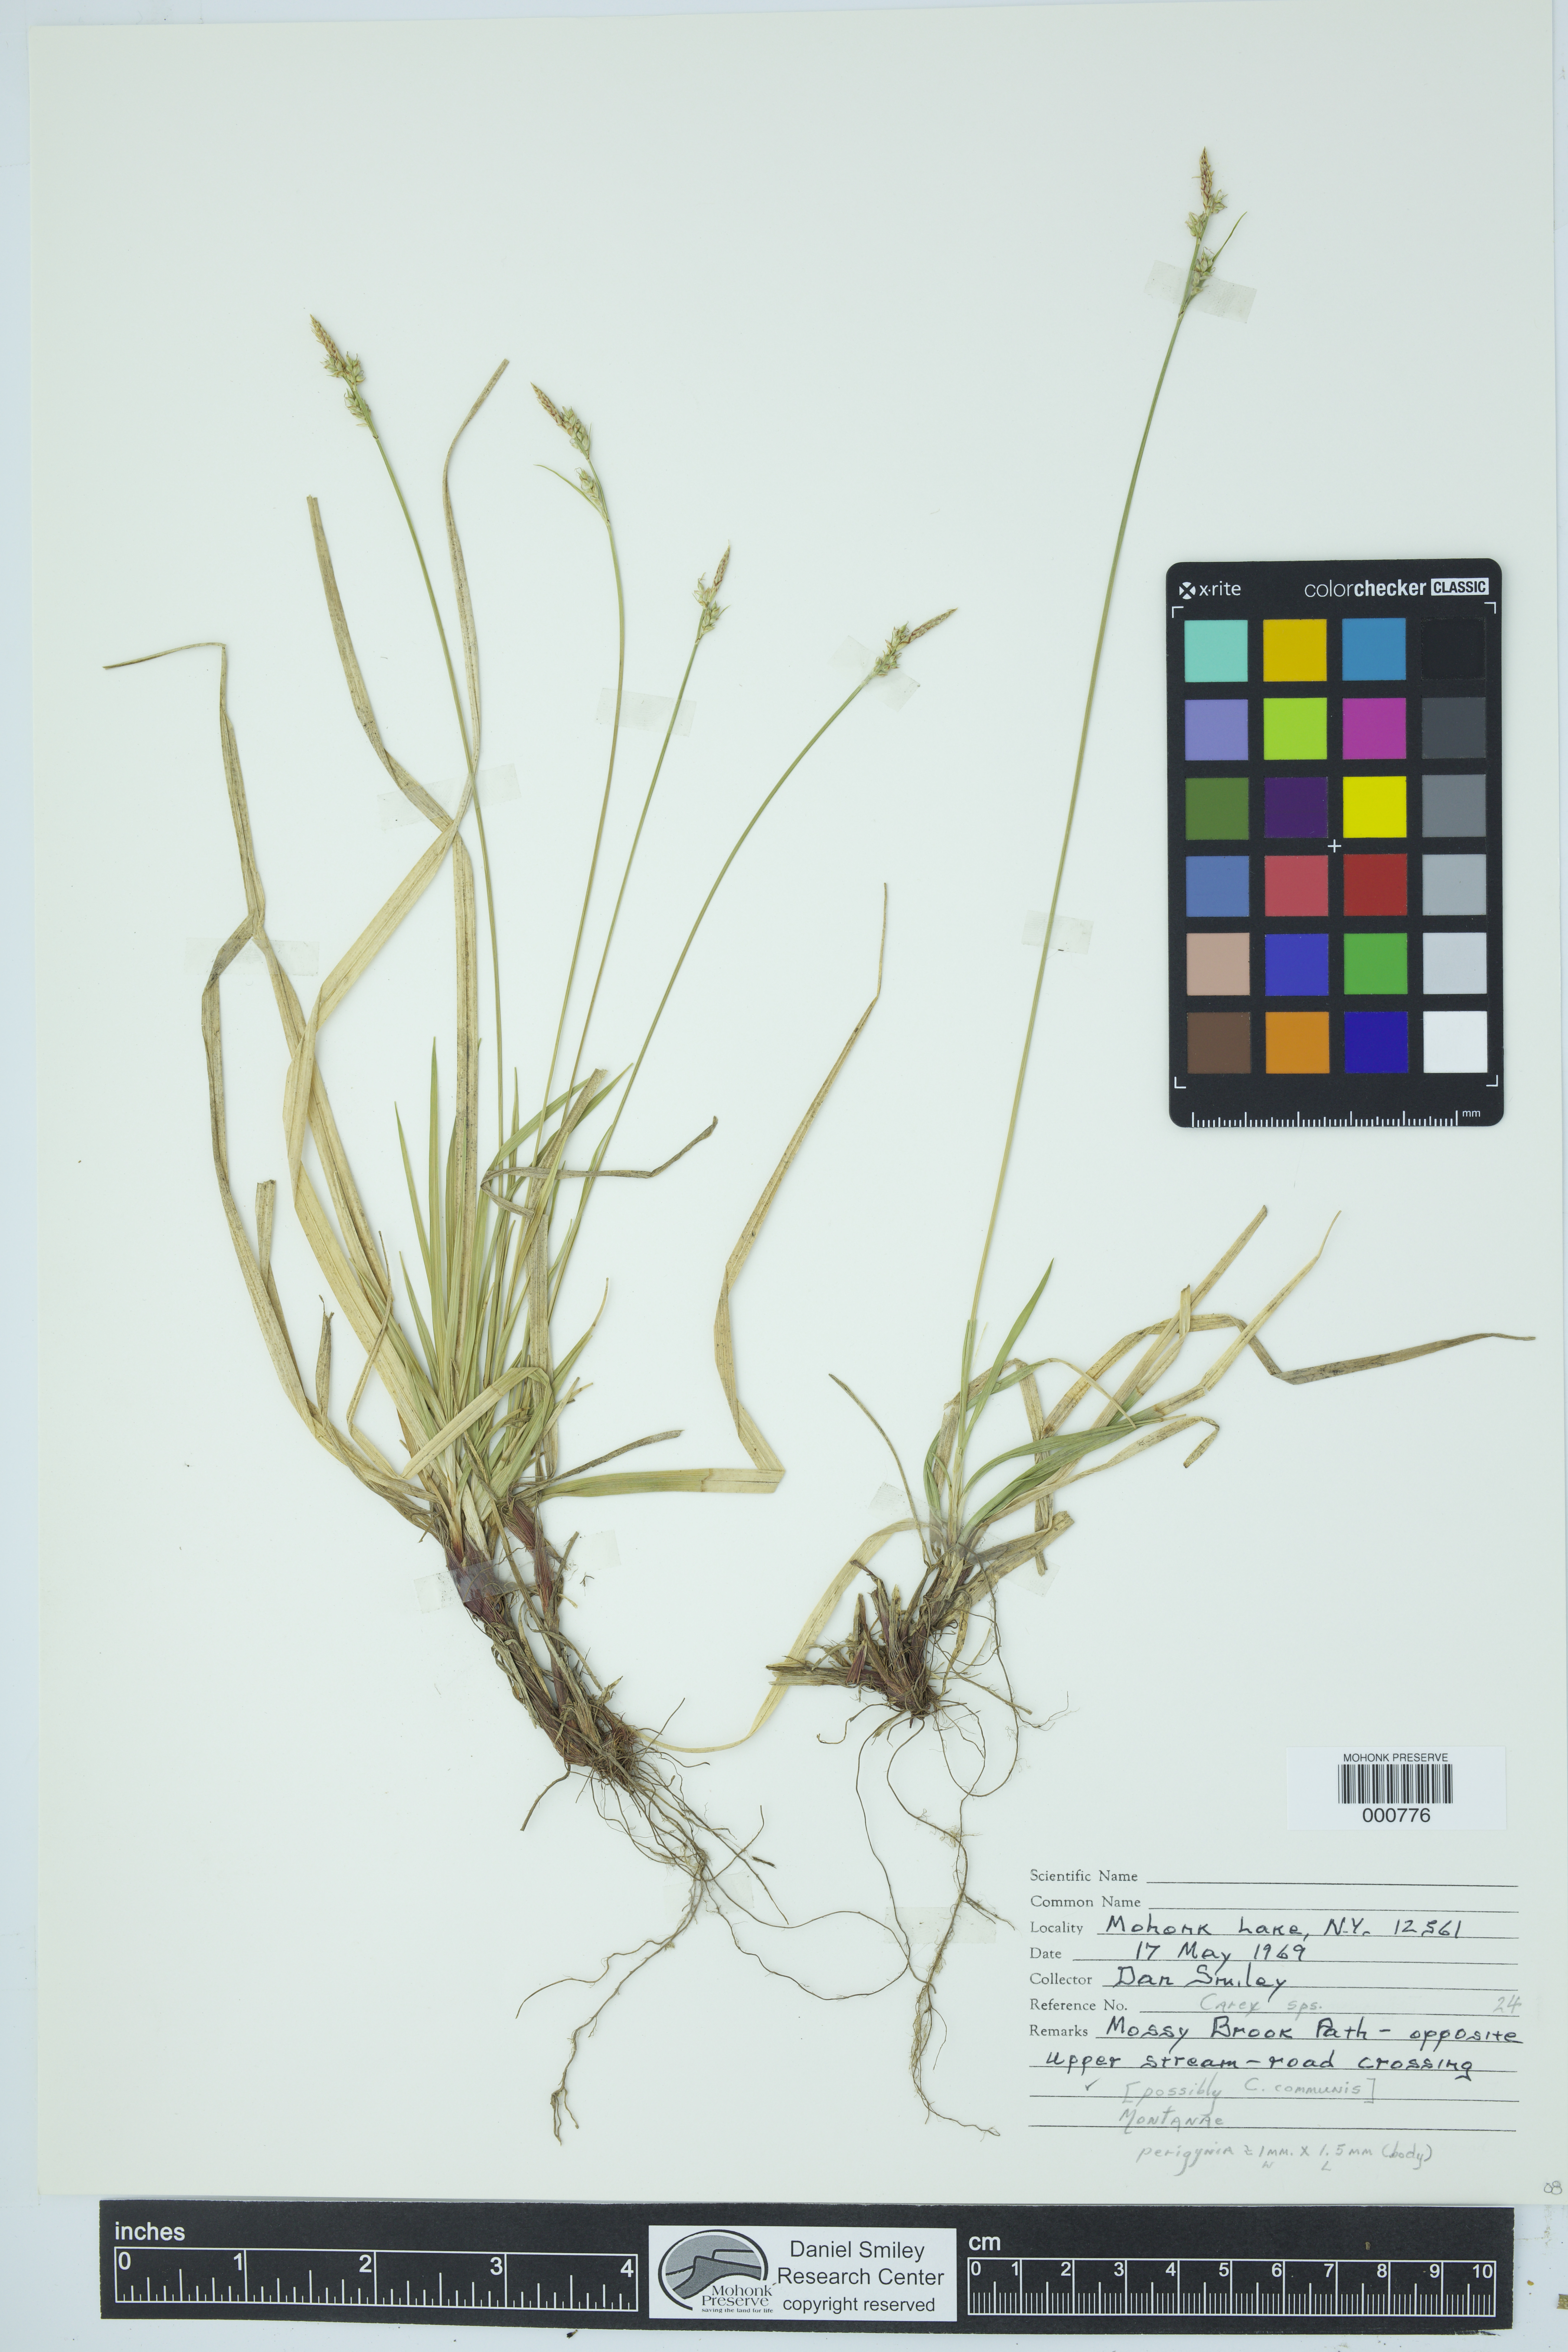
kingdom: Plantae
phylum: Tracheophyta
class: Liliopsida
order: Poales
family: Cyperaceae
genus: Carex
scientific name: Carex communis
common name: Colonial oak sedge
